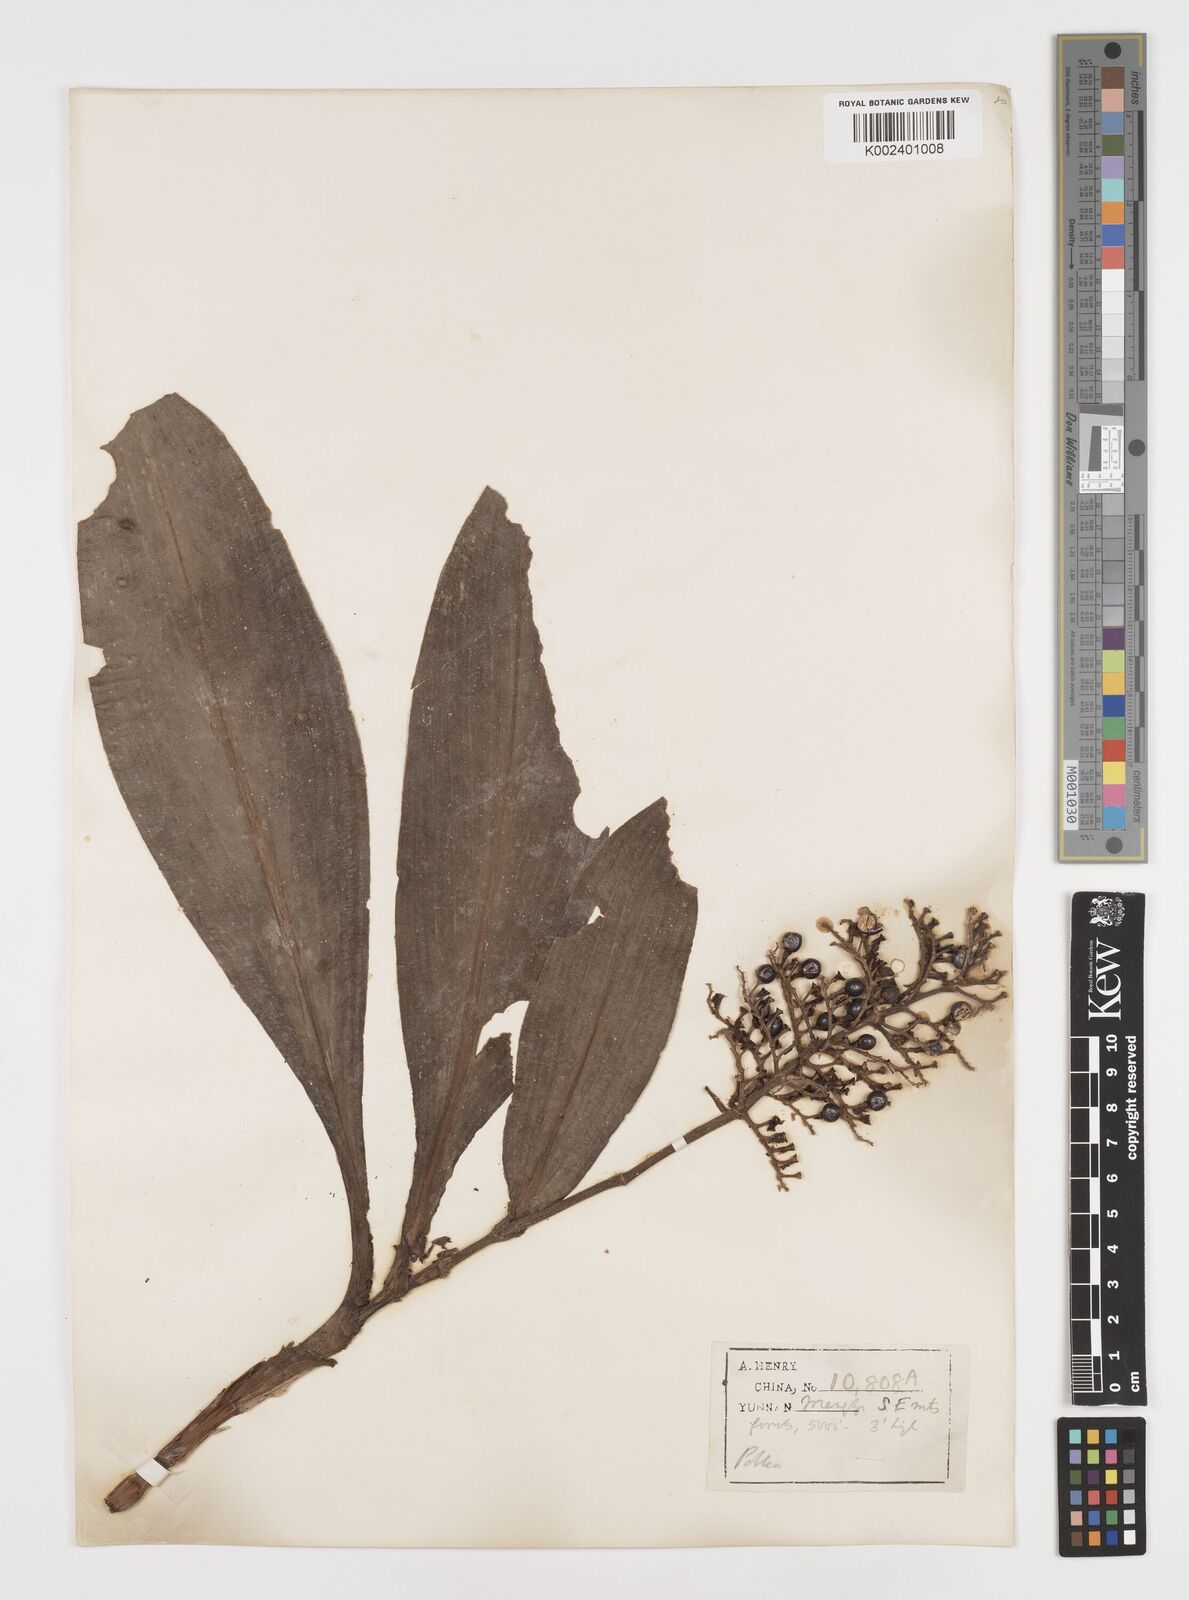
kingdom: Plantae
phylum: Tracheophyta
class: Liliopsida
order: Commelinales
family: Commelinaceae
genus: Pollia
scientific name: Pollia thyrsiflora
